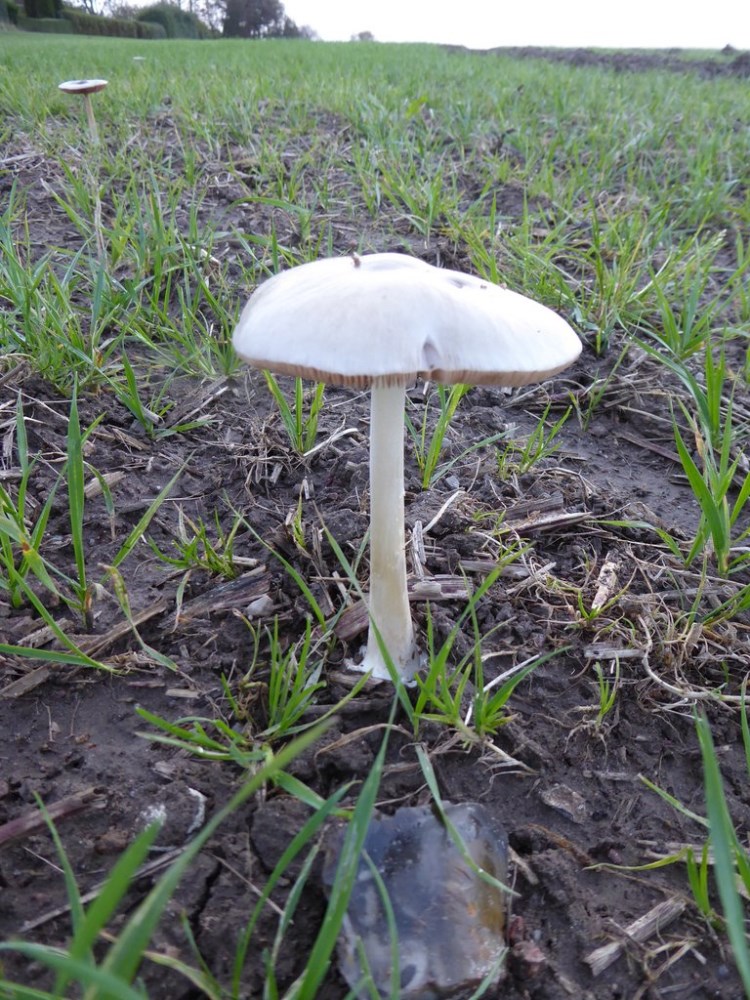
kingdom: Fungi
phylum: Basidiomycota
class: Agaricomycetes
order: Agaricales
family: Pluteaceae
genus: Volvopluteus
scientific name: Volvopluteus gloiocephalus
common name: høj posesvamp
